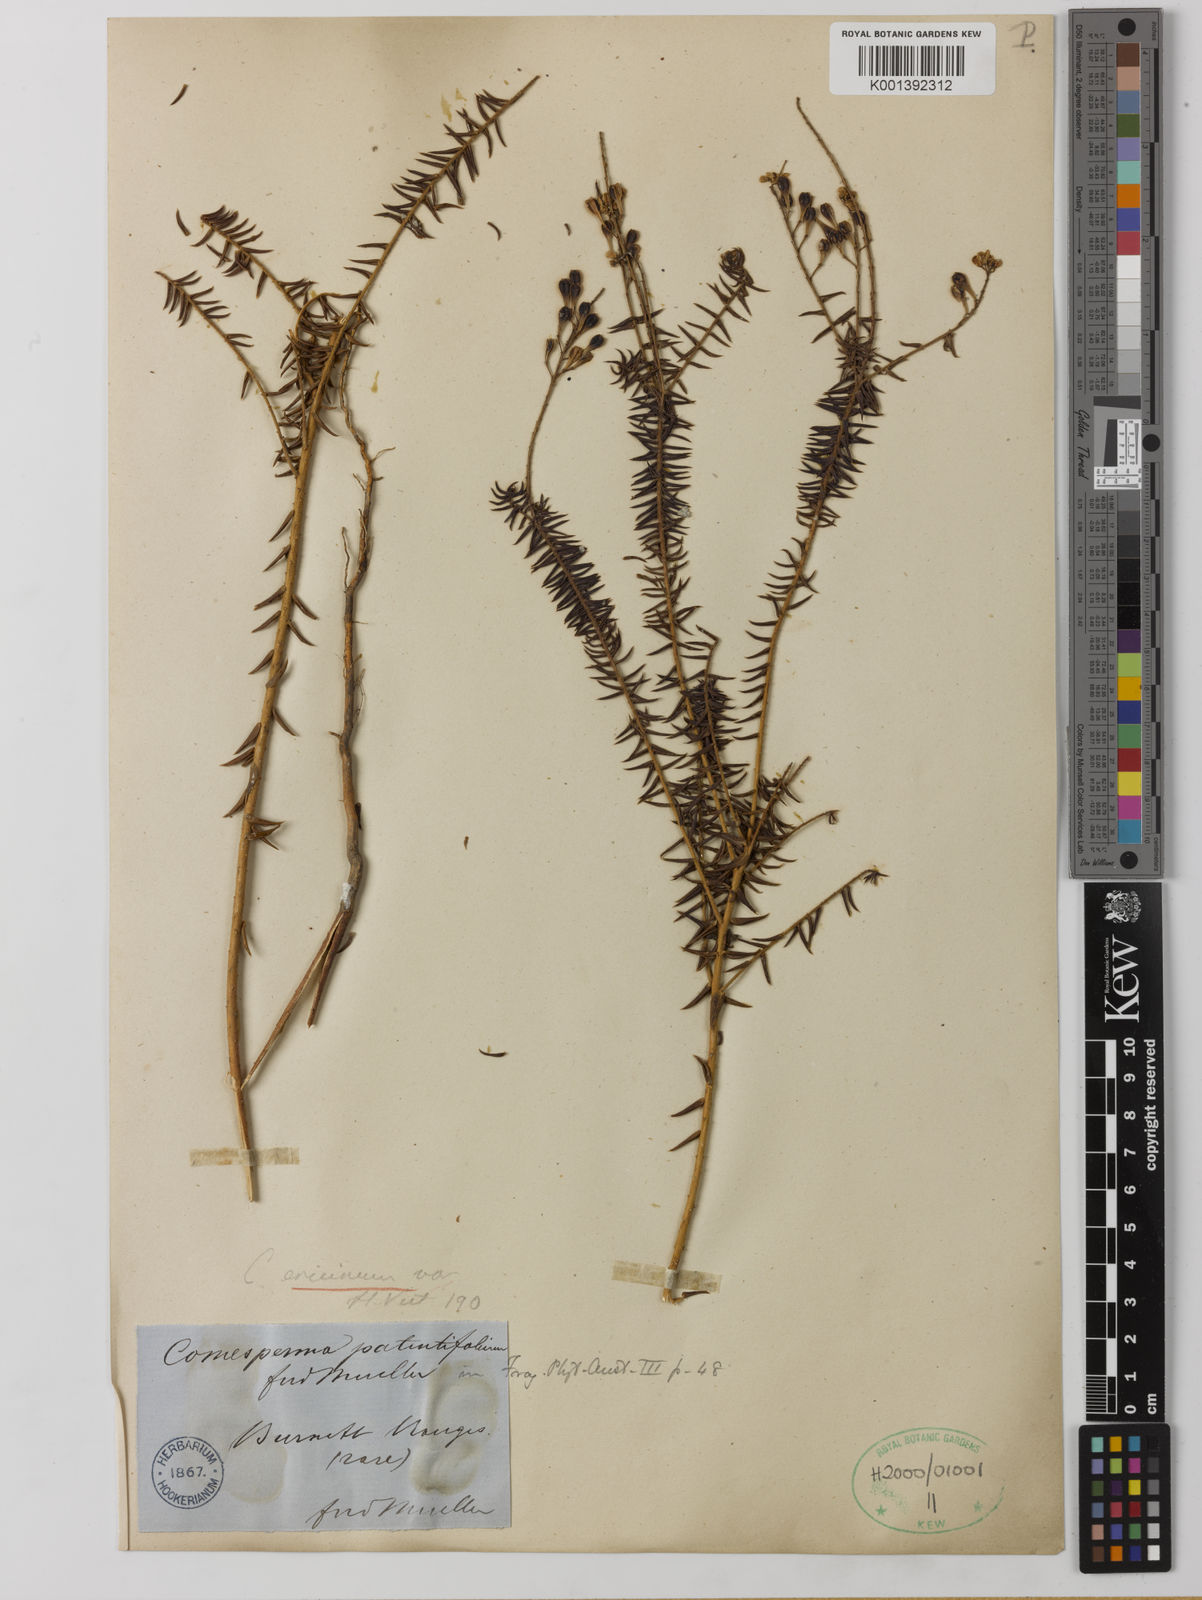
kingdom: Plantae
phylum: Tracheophyta
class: Magnoliopsida
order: Fabales
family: Polygalaceae
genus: Comesperma
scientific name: Comesperma patentifolium
